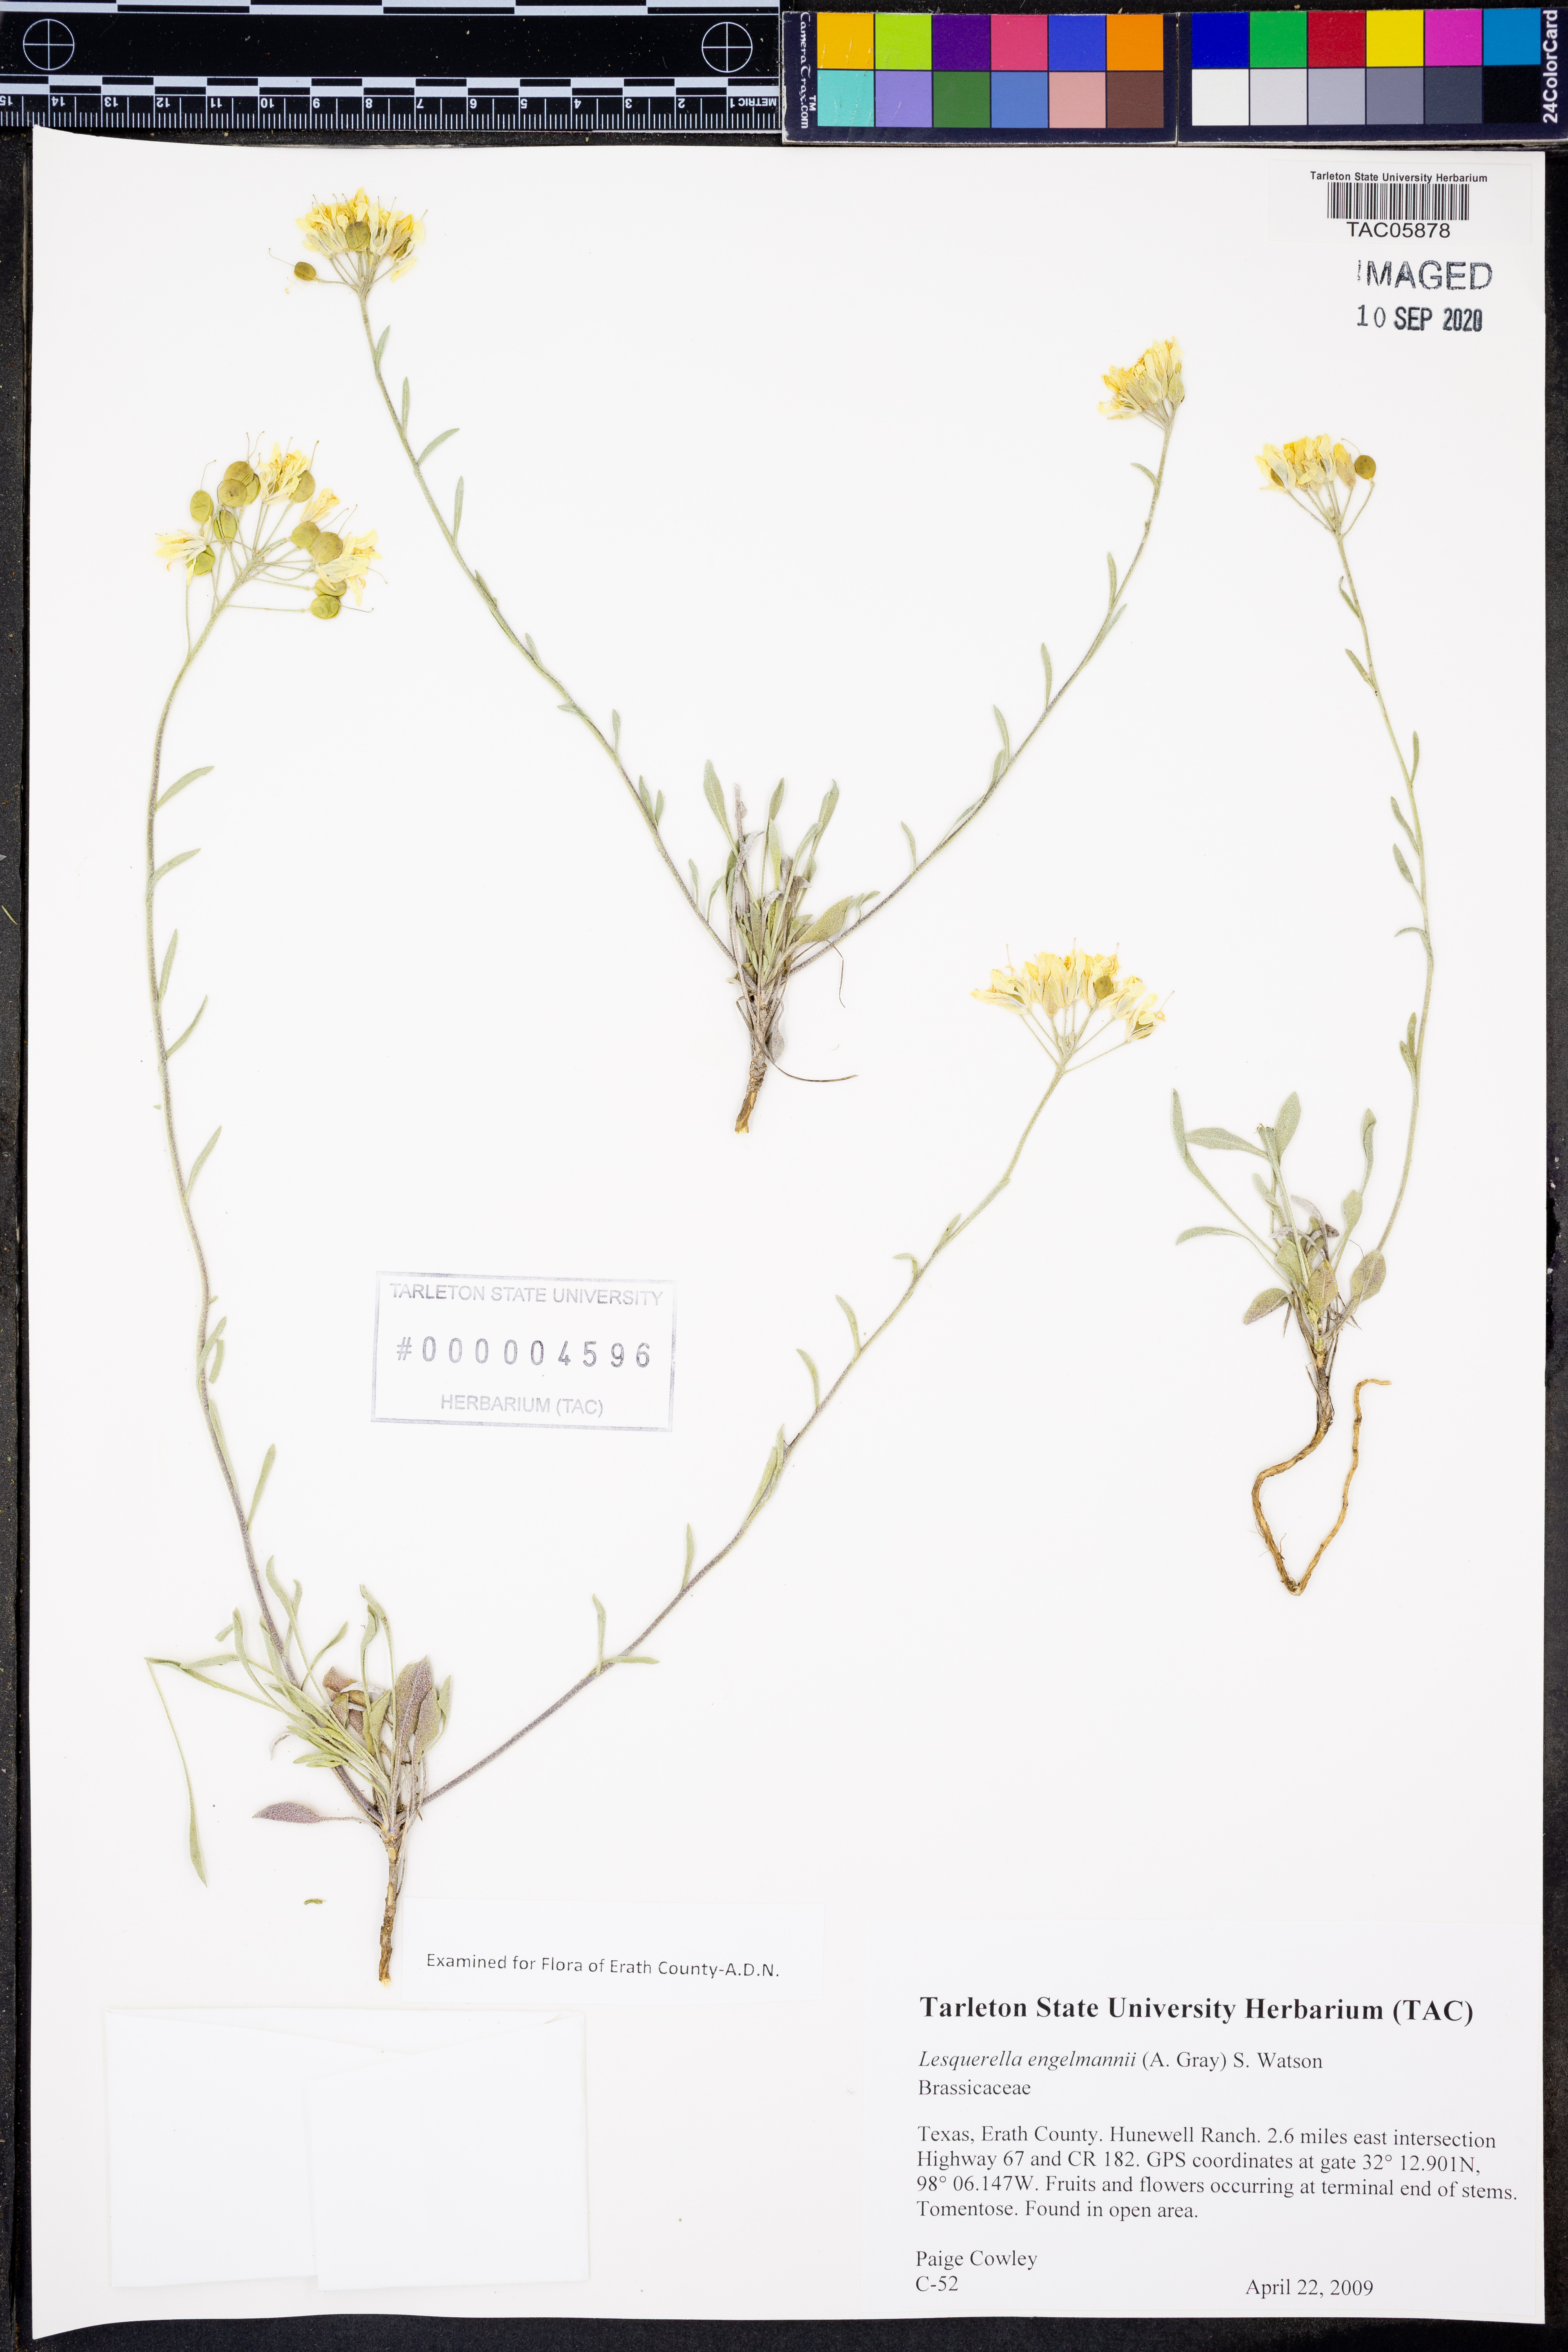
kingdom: Plantae
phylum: Tracheophyta
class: Magnoliopsida
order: Brassicales
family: Brassicaceae
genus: Physaria
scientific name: Physaria engelmannii
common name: Engelmann's bladderpod
